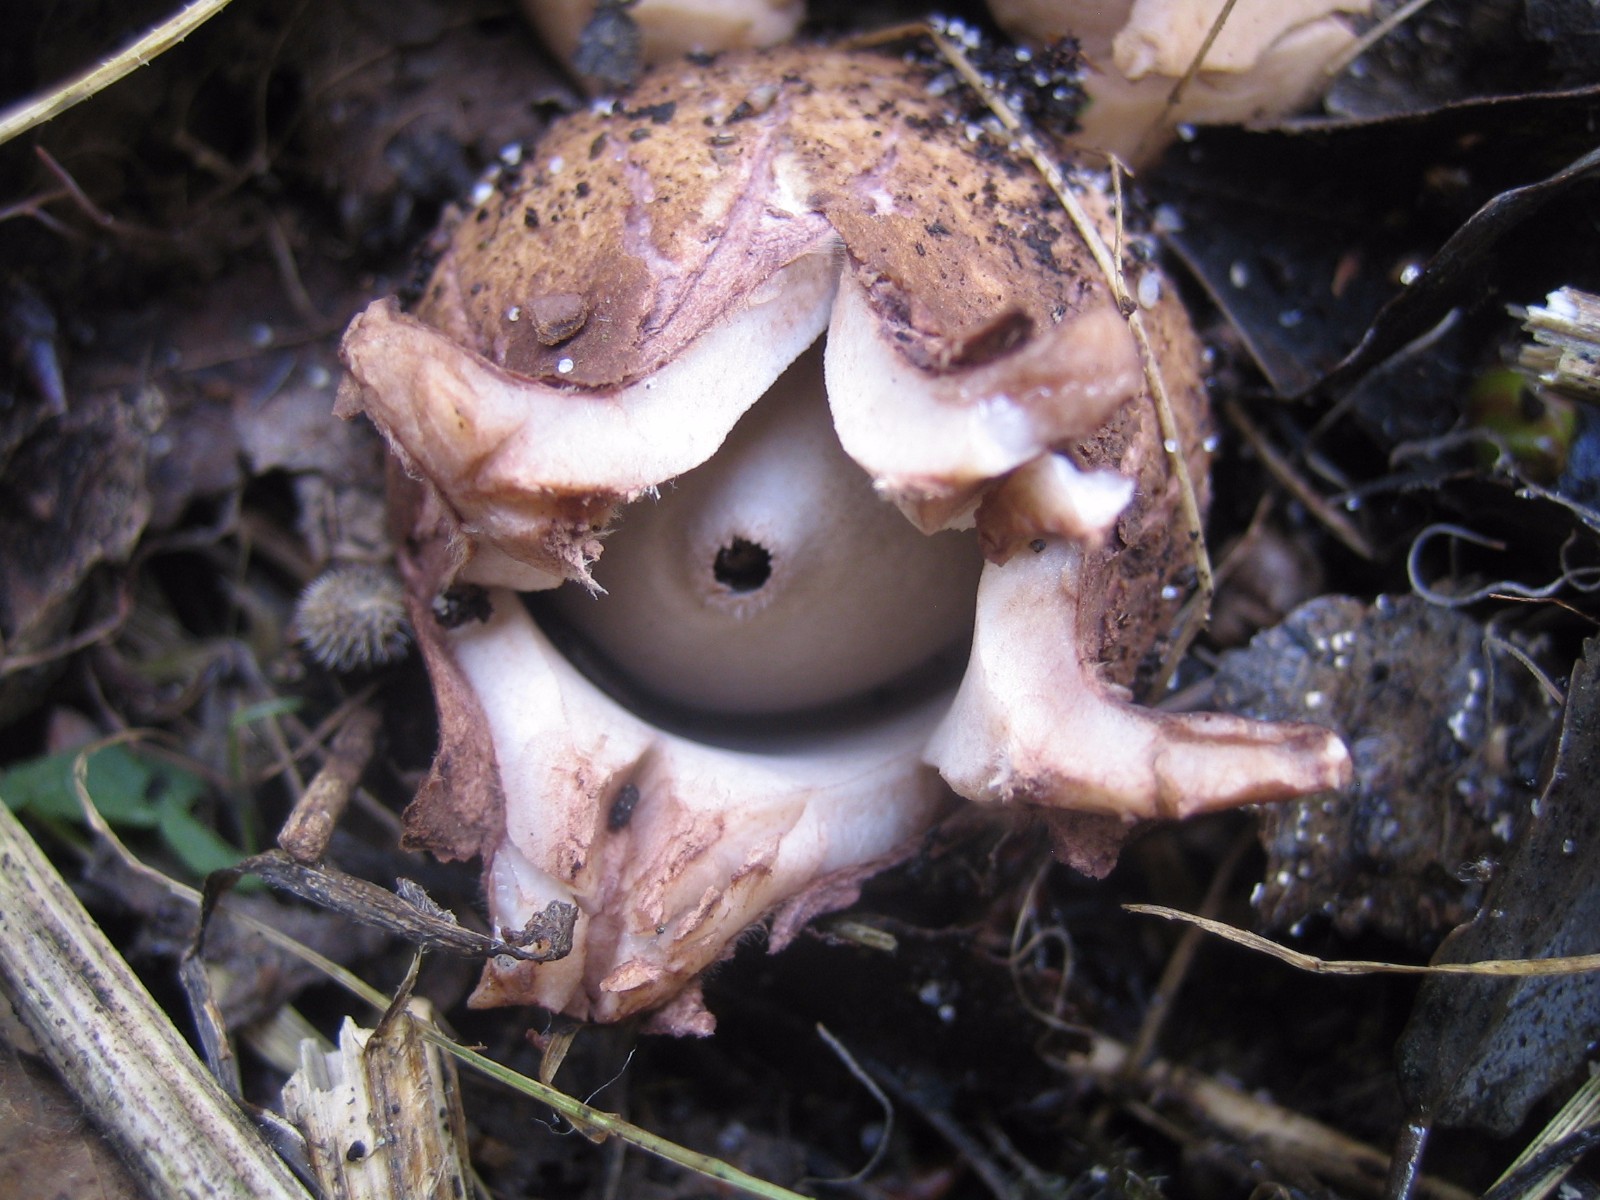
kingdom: Fungi
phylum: Basidiomycota
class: Agaricomycetes
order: Geastrales
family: Geastraceae
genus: Geastrum
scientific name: Geastrum michelianum
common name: kødet stjernebold
